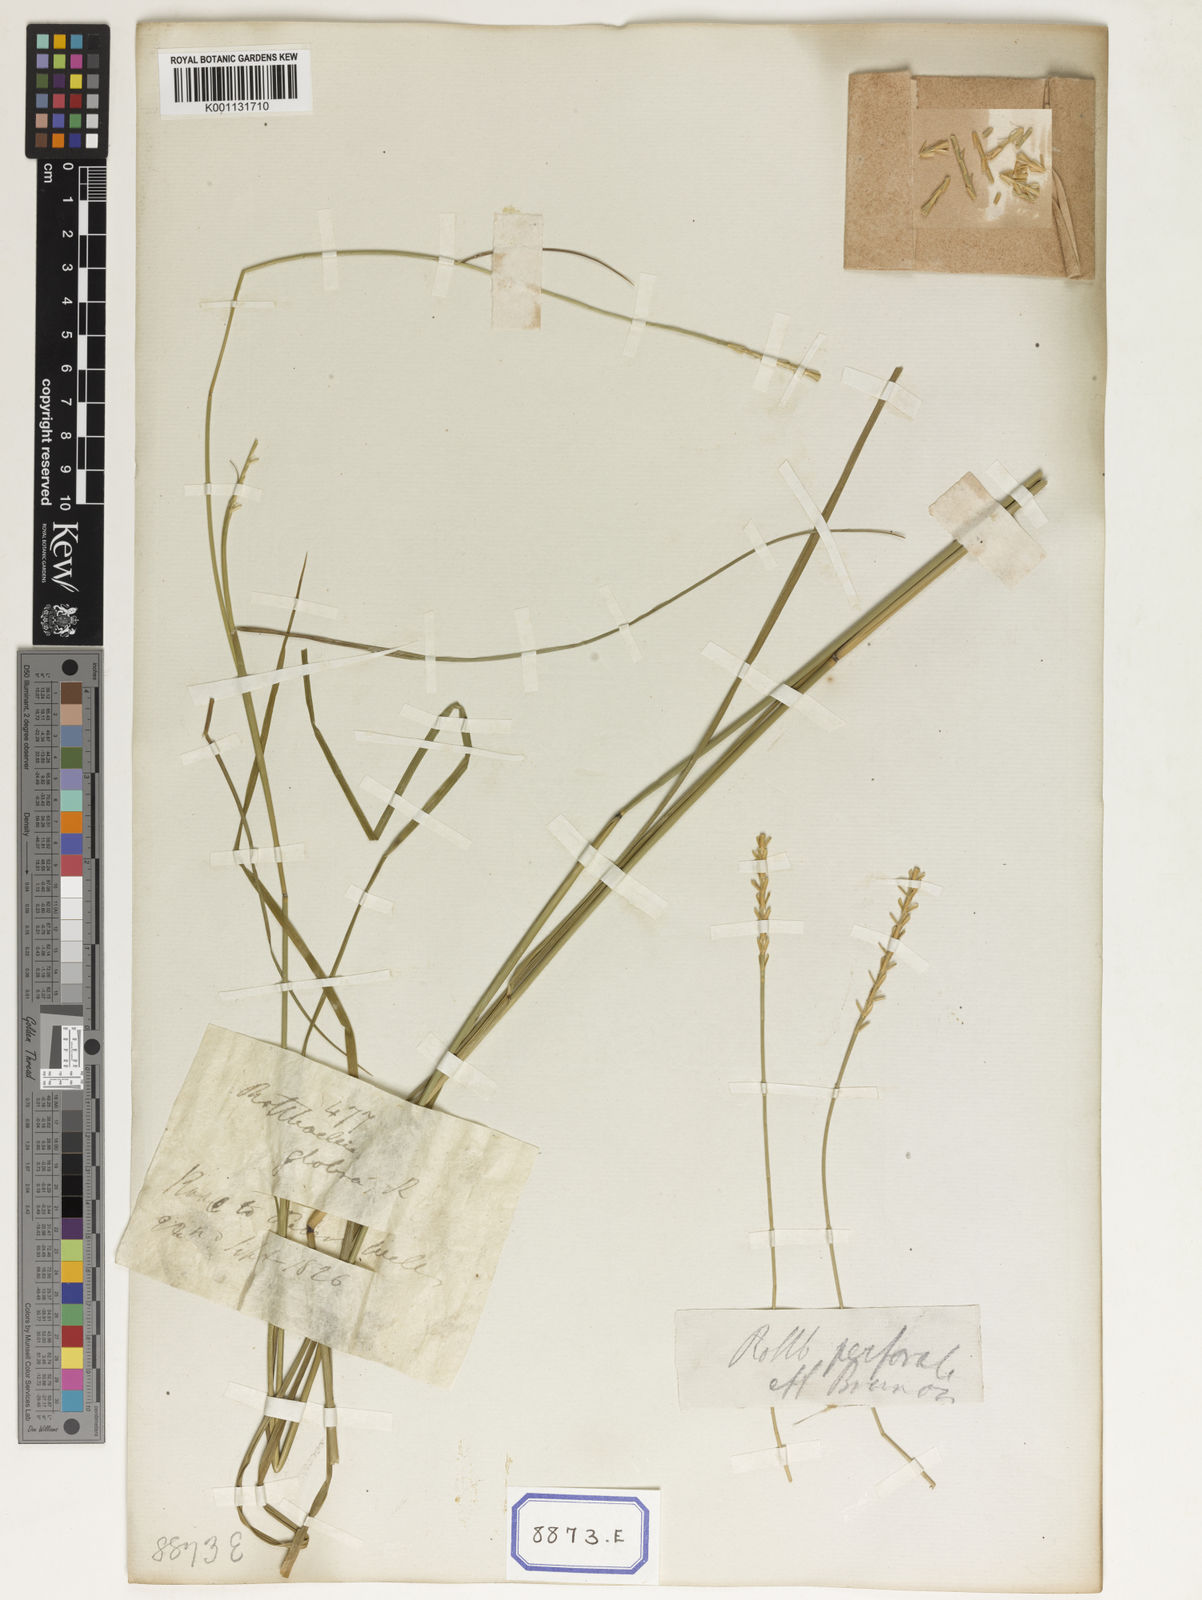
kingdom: Plantae
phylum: Tracheophyta
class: Liliopsida
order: Poales
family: Poaceae
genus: Mnesithea
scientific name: Mnesithea laevis
